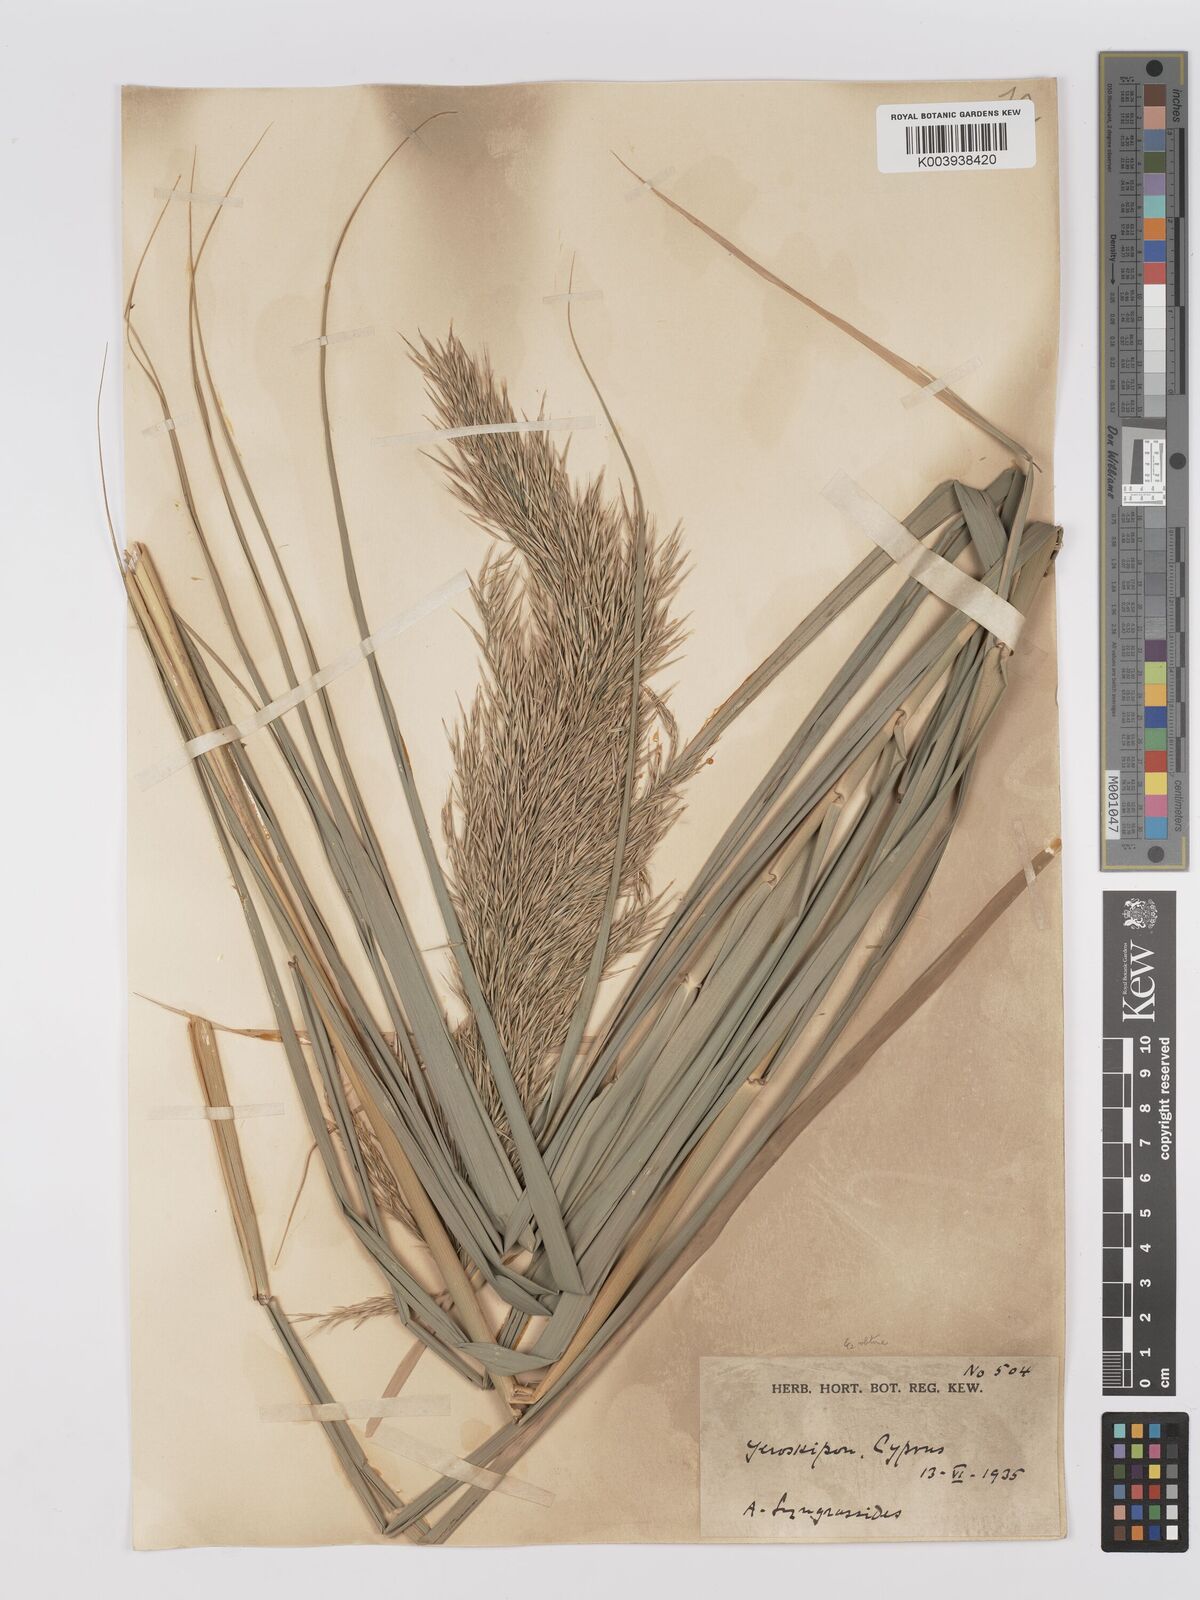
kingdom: Plantae
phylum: Tracheophyta
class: Liliopsida
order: Poales
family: Poaceae
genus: Phragmites
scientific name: Phragmites australis
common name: Common reed
